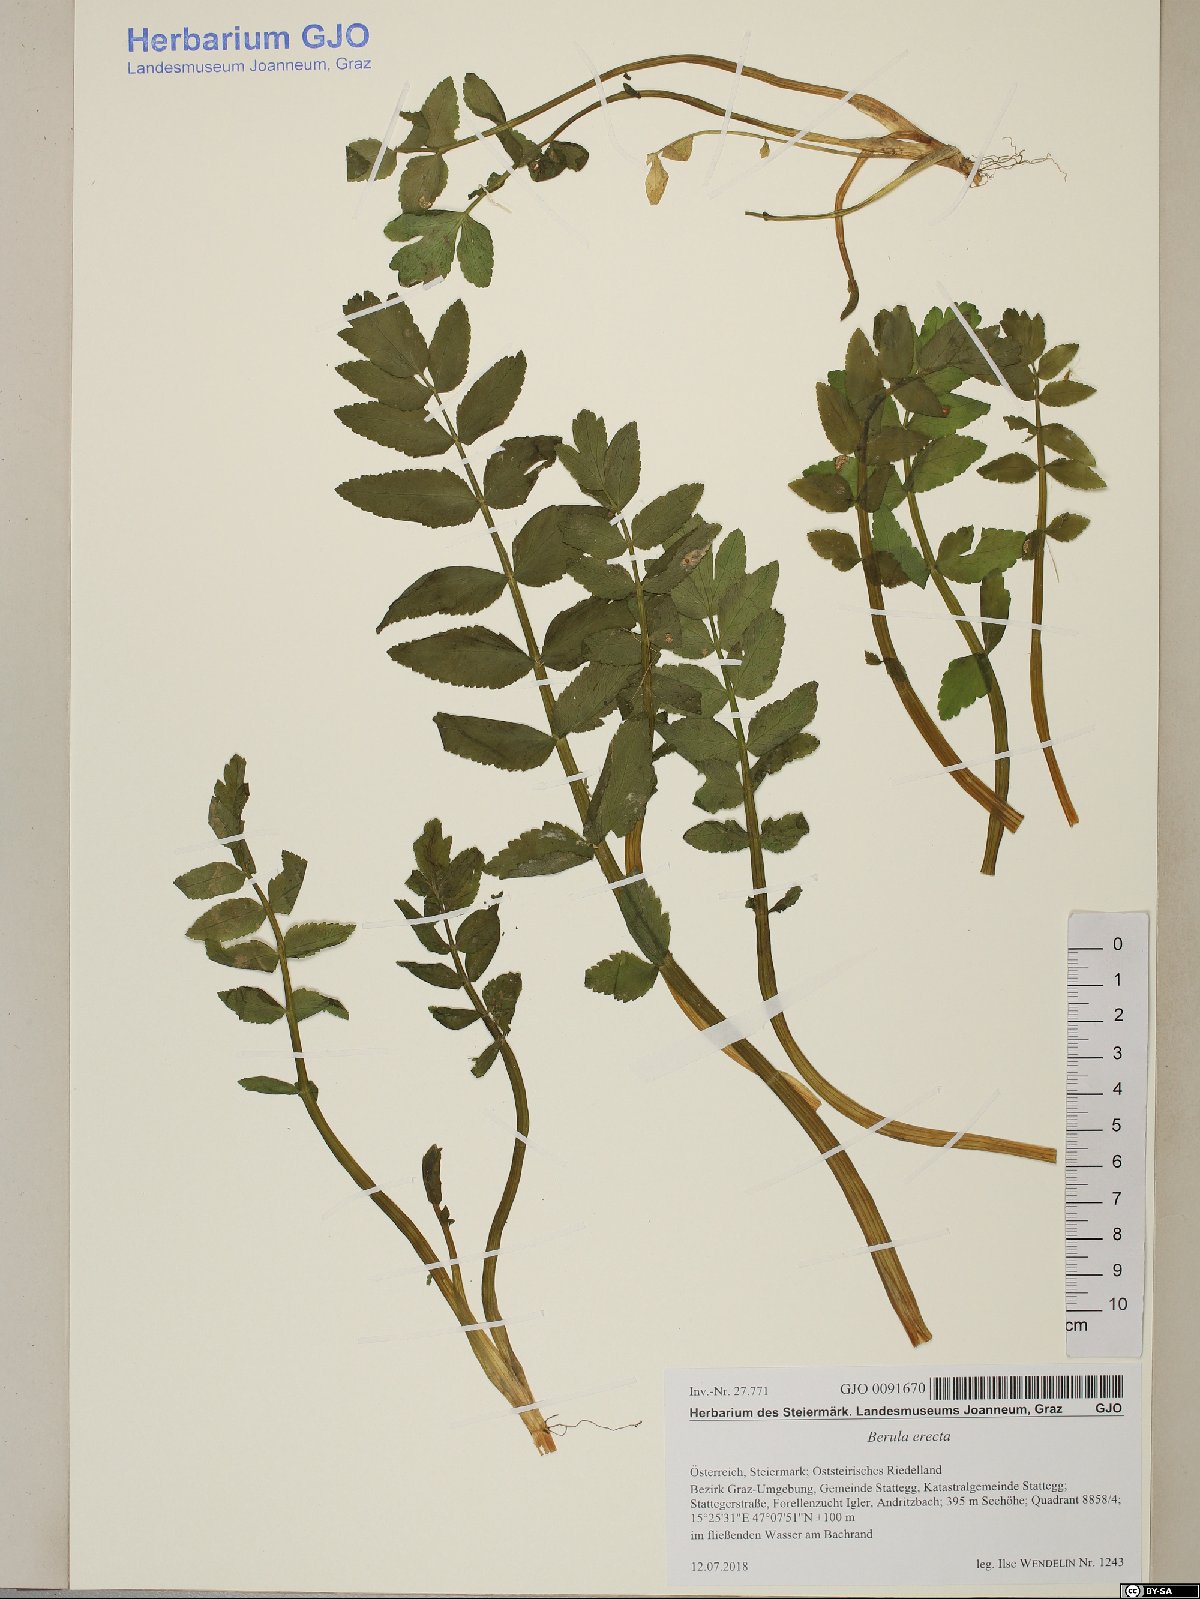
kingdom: Plantae
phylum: Tracheophyta
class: Magnoliopsida
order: Apiales
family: Apiaceae
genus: Berula
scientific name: Berula erecta
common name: Lesser water-parsnip
